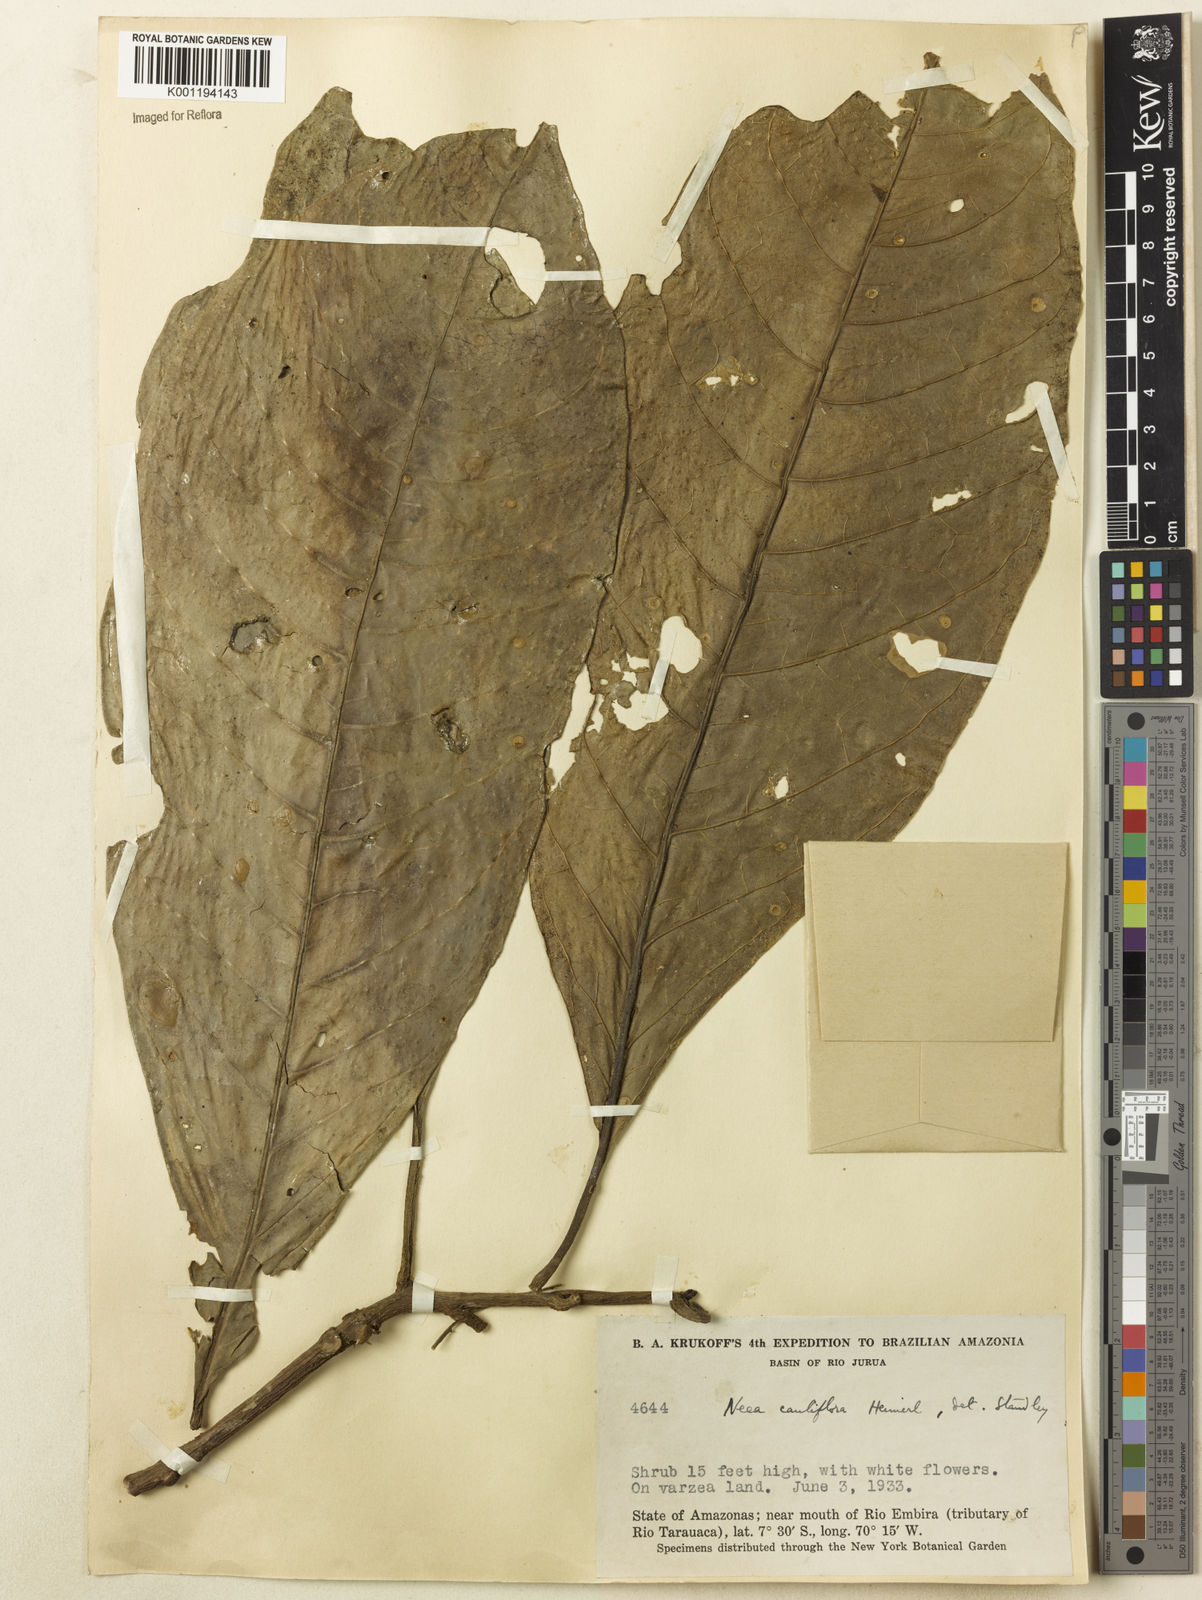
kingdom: Plantae
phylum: Tracheophyta
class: Magnoliopsida
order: Caryophyllales
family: Nyctaginaceae
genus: Neea
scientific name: Neea floribunda
